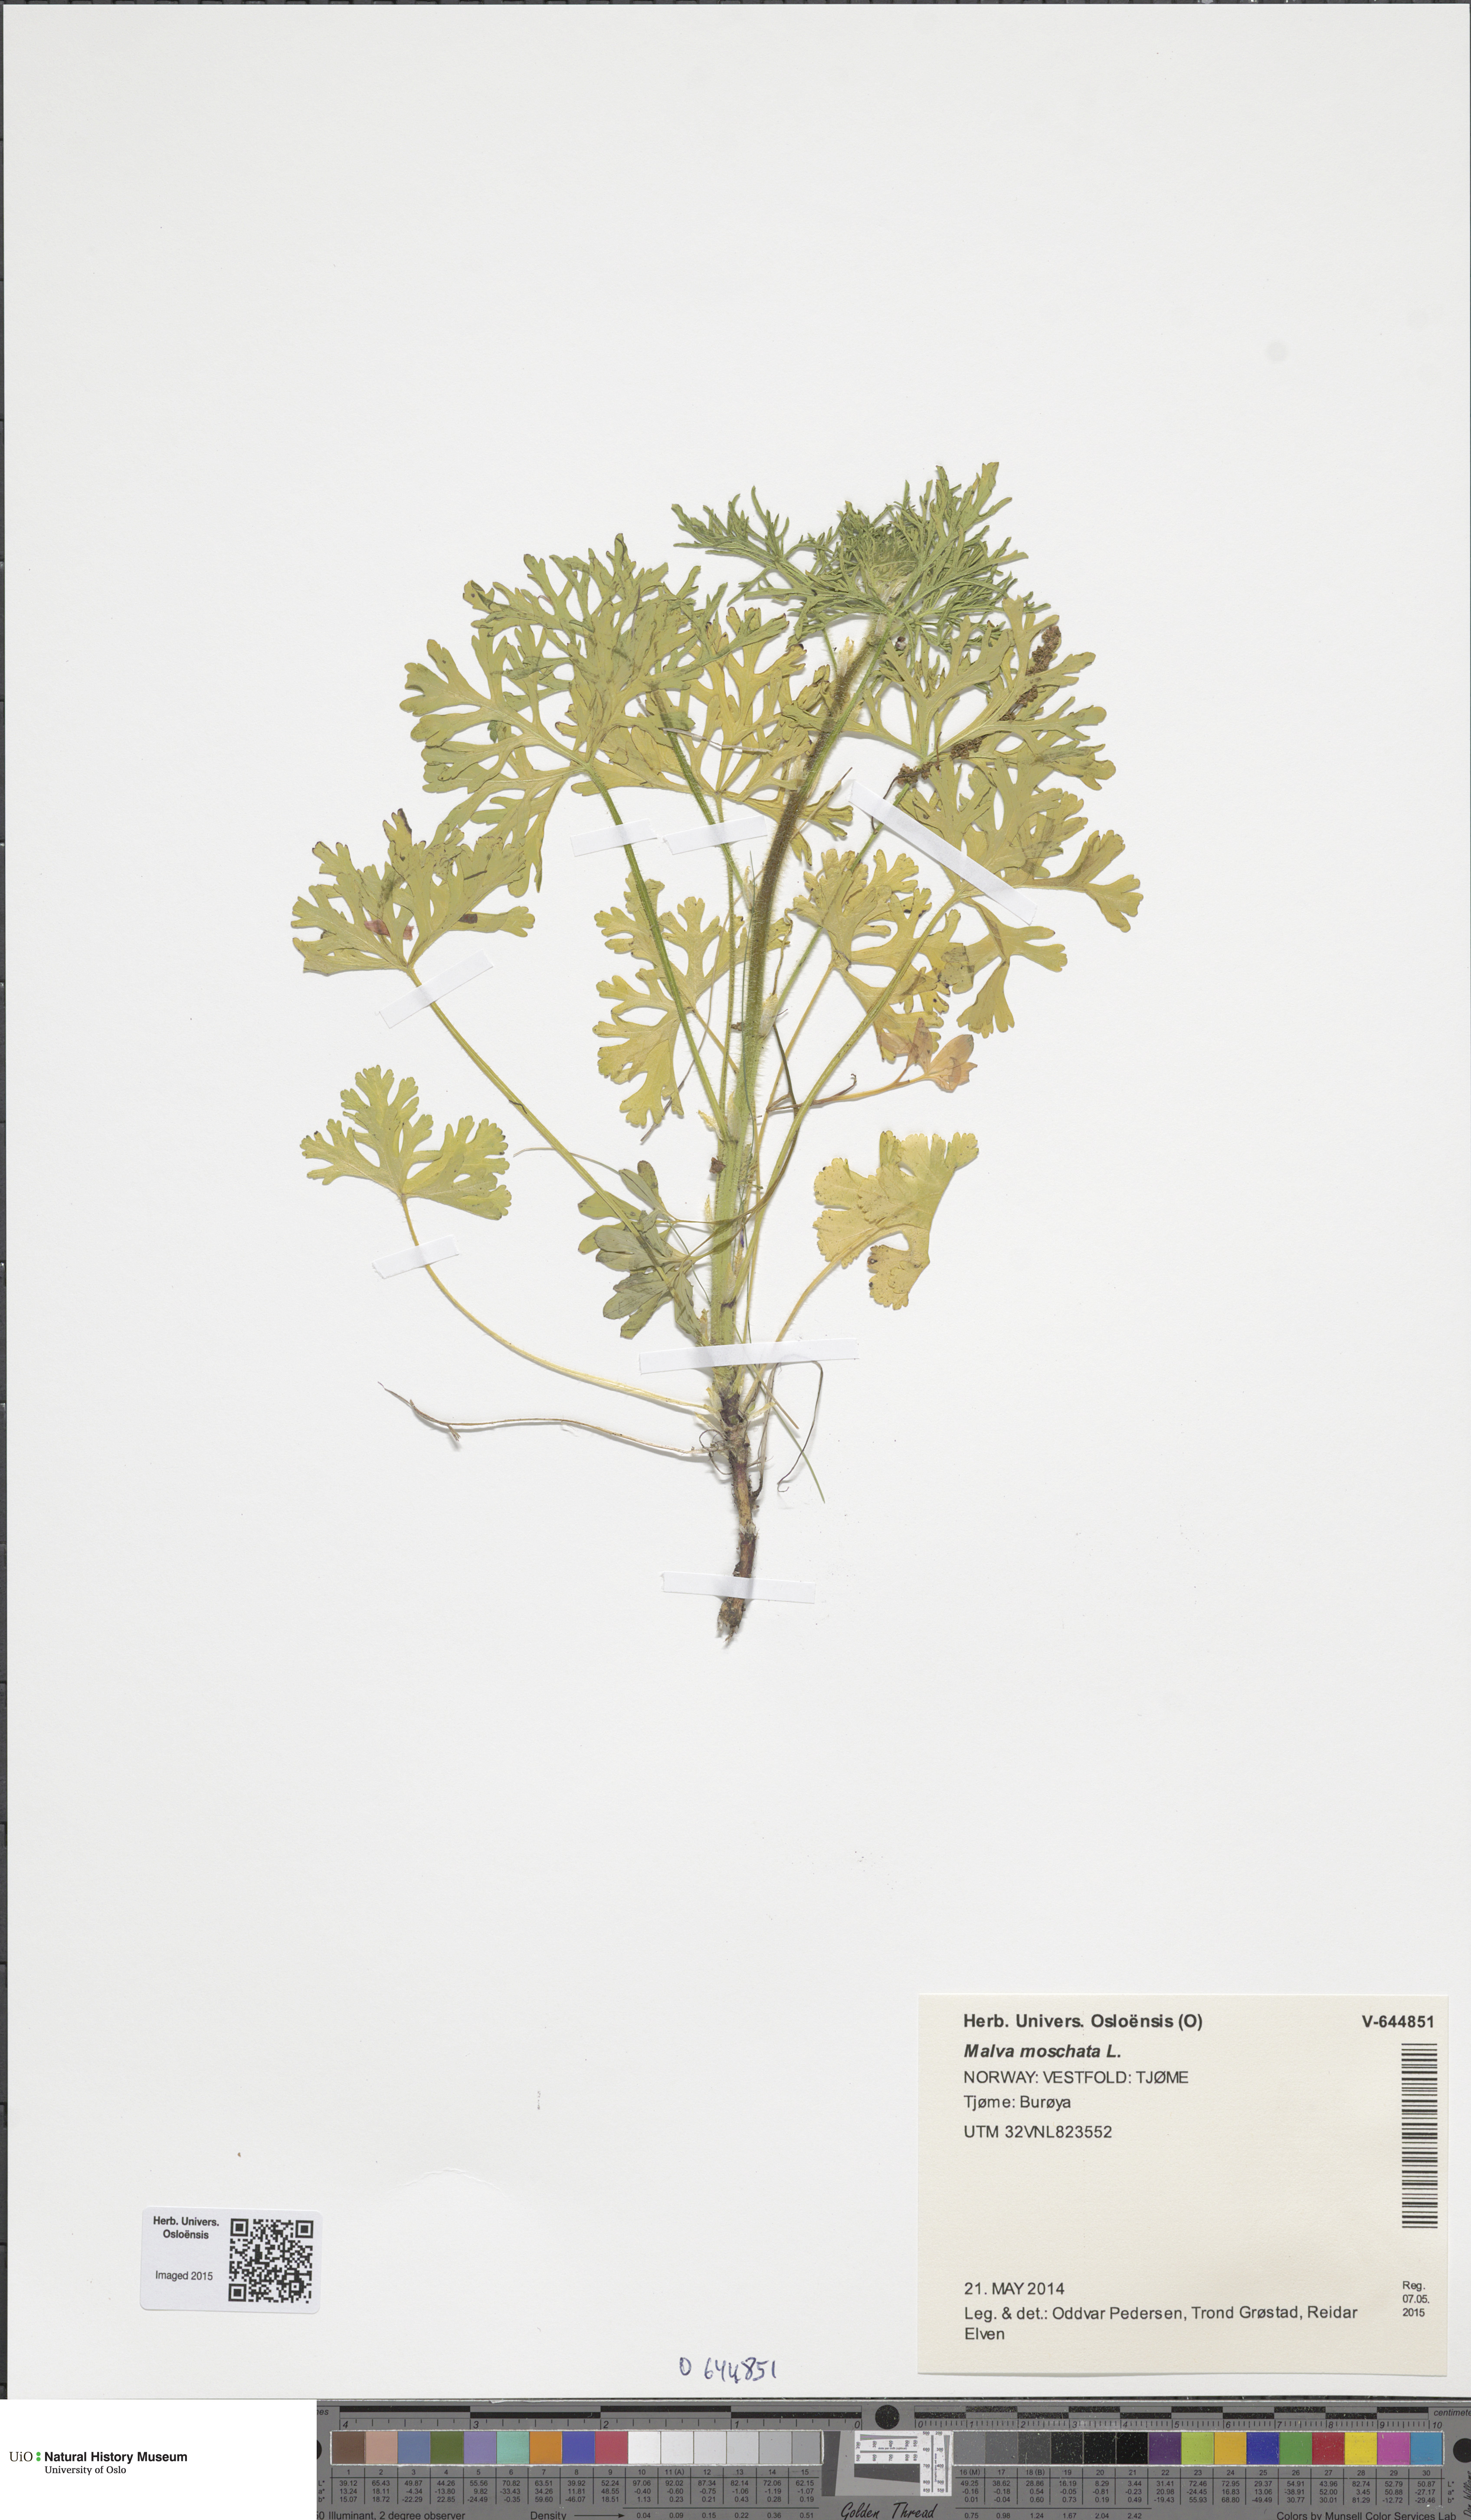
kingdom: Plantae
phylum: Tracheophyta
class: Magnoliopsida
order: Malvales
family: Malvaceae
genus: Malva
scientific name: Malva moschata
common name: Musk mallow
